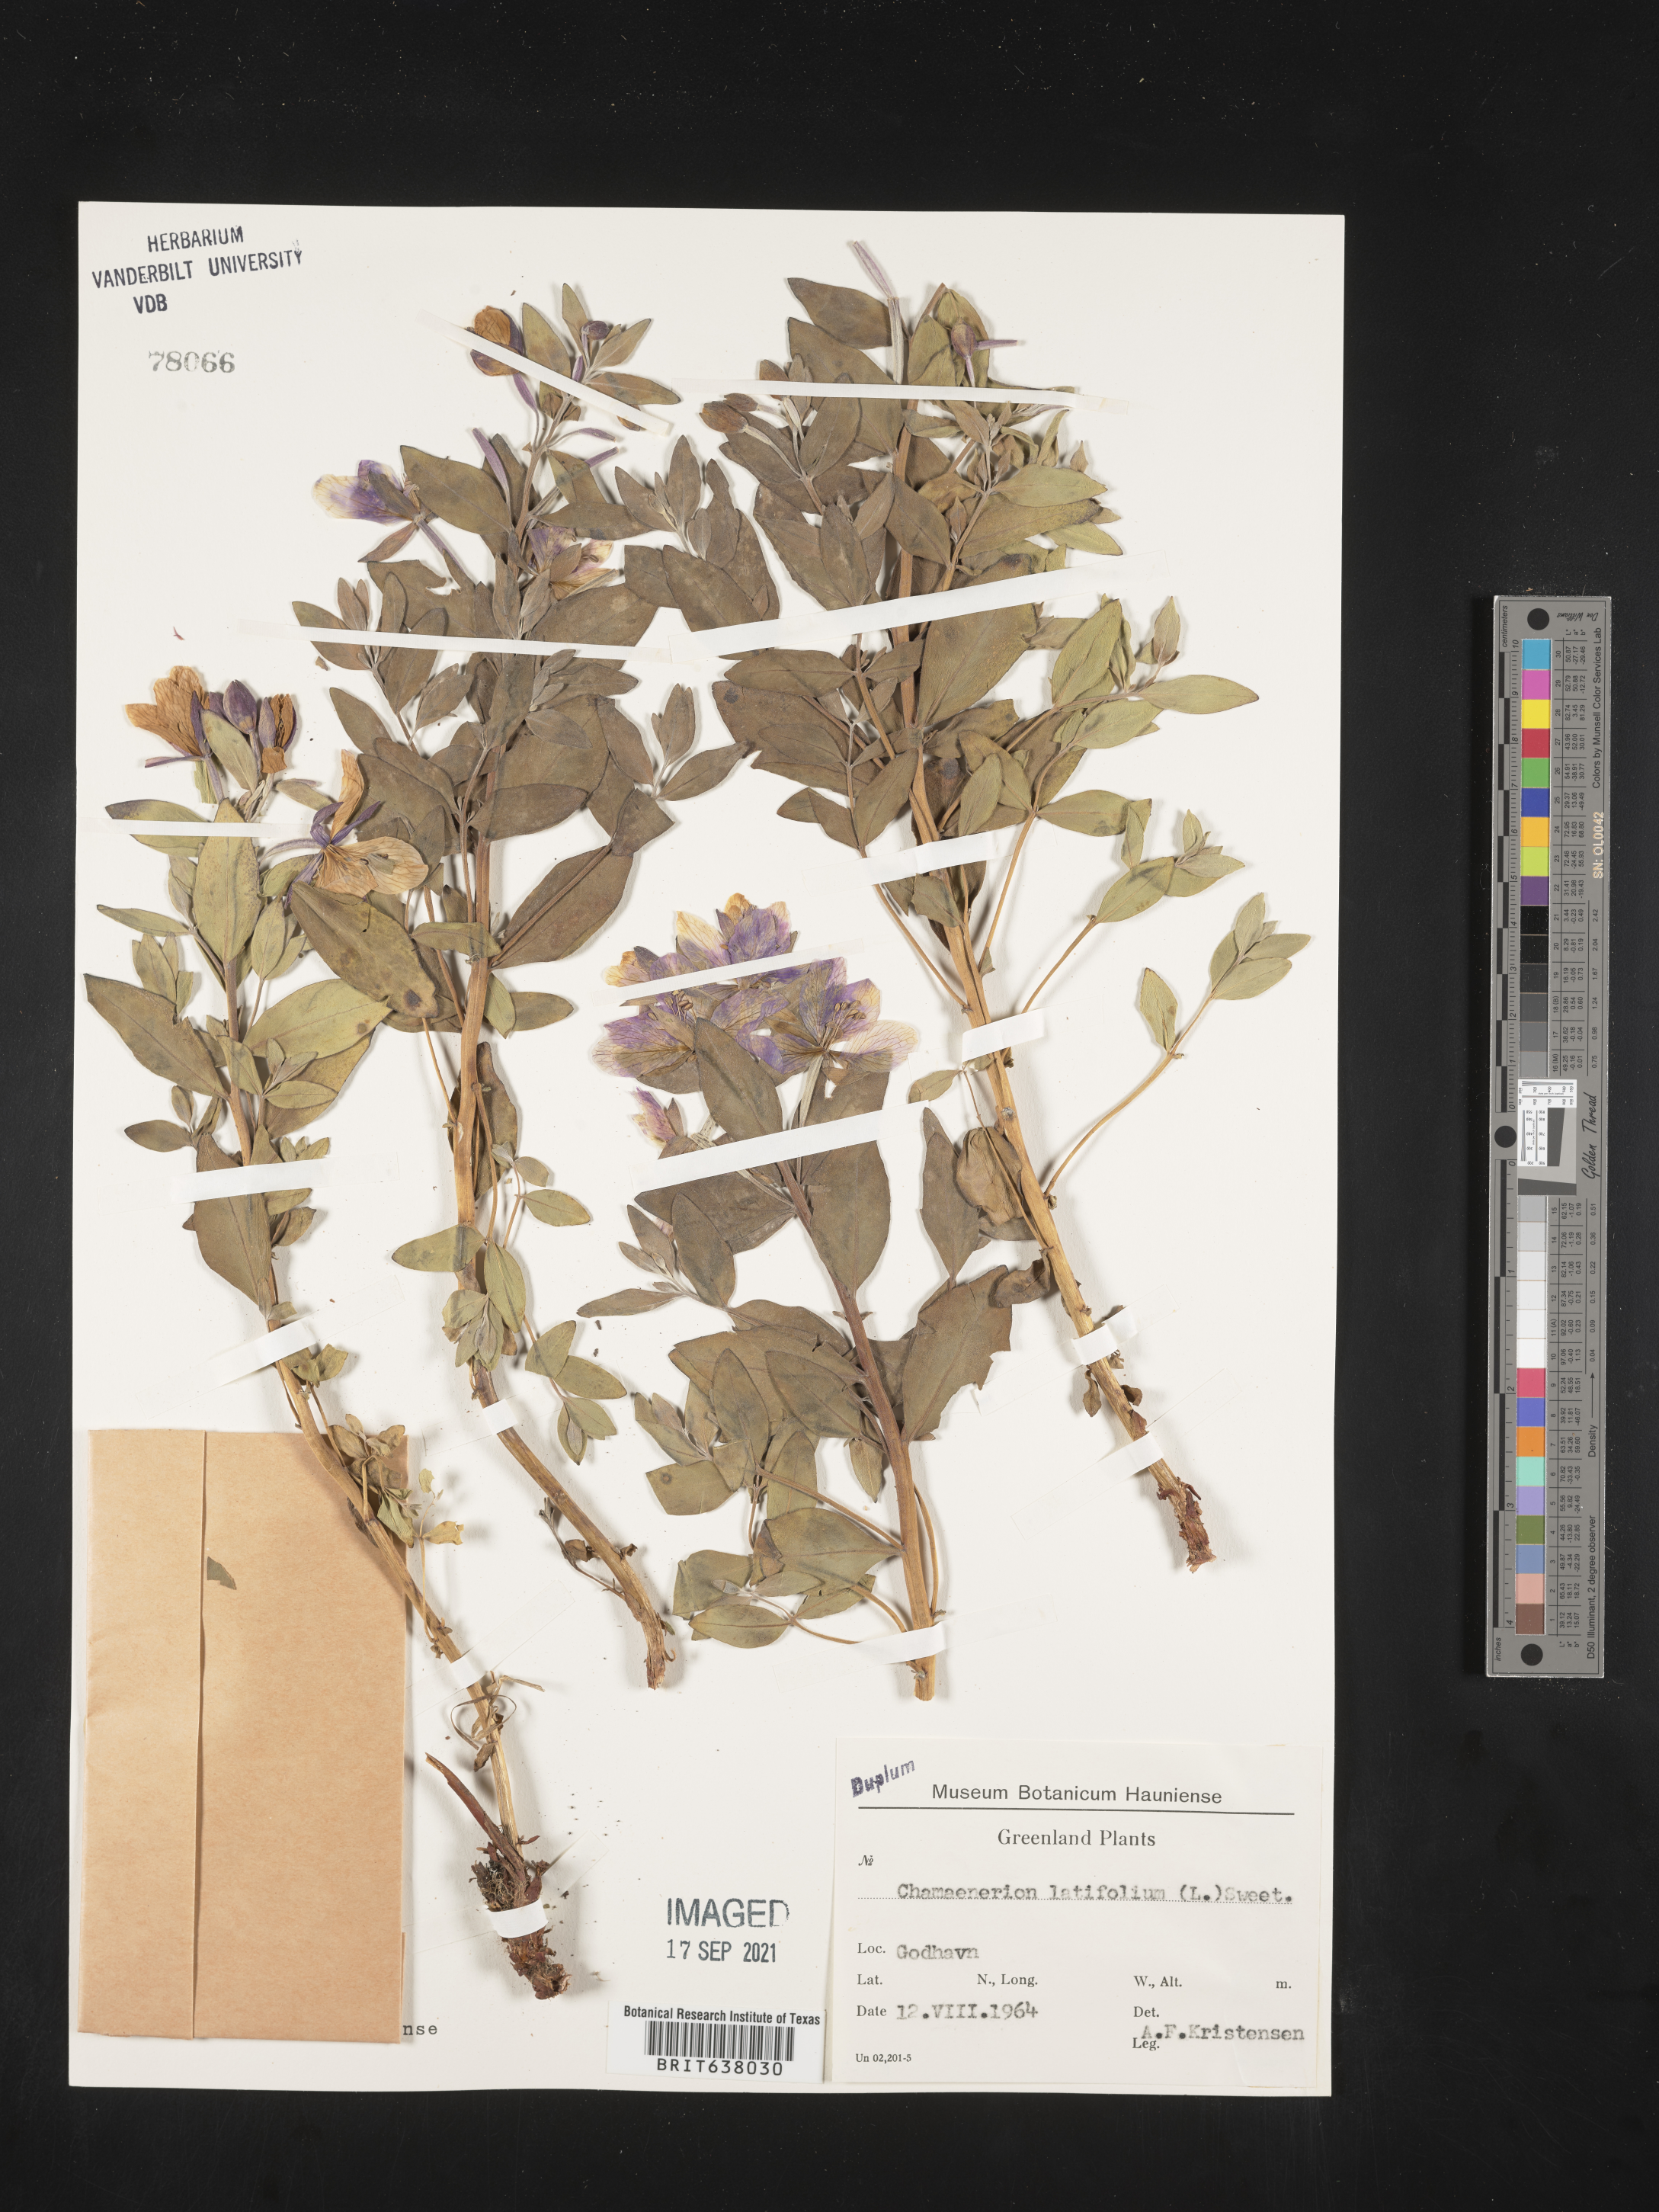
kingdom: Plantae
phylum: Tracheophyta
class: Magnoliopsida
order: Myrtales
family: Onagraceae
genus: Chamaenerion
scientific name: Chamaenerion
